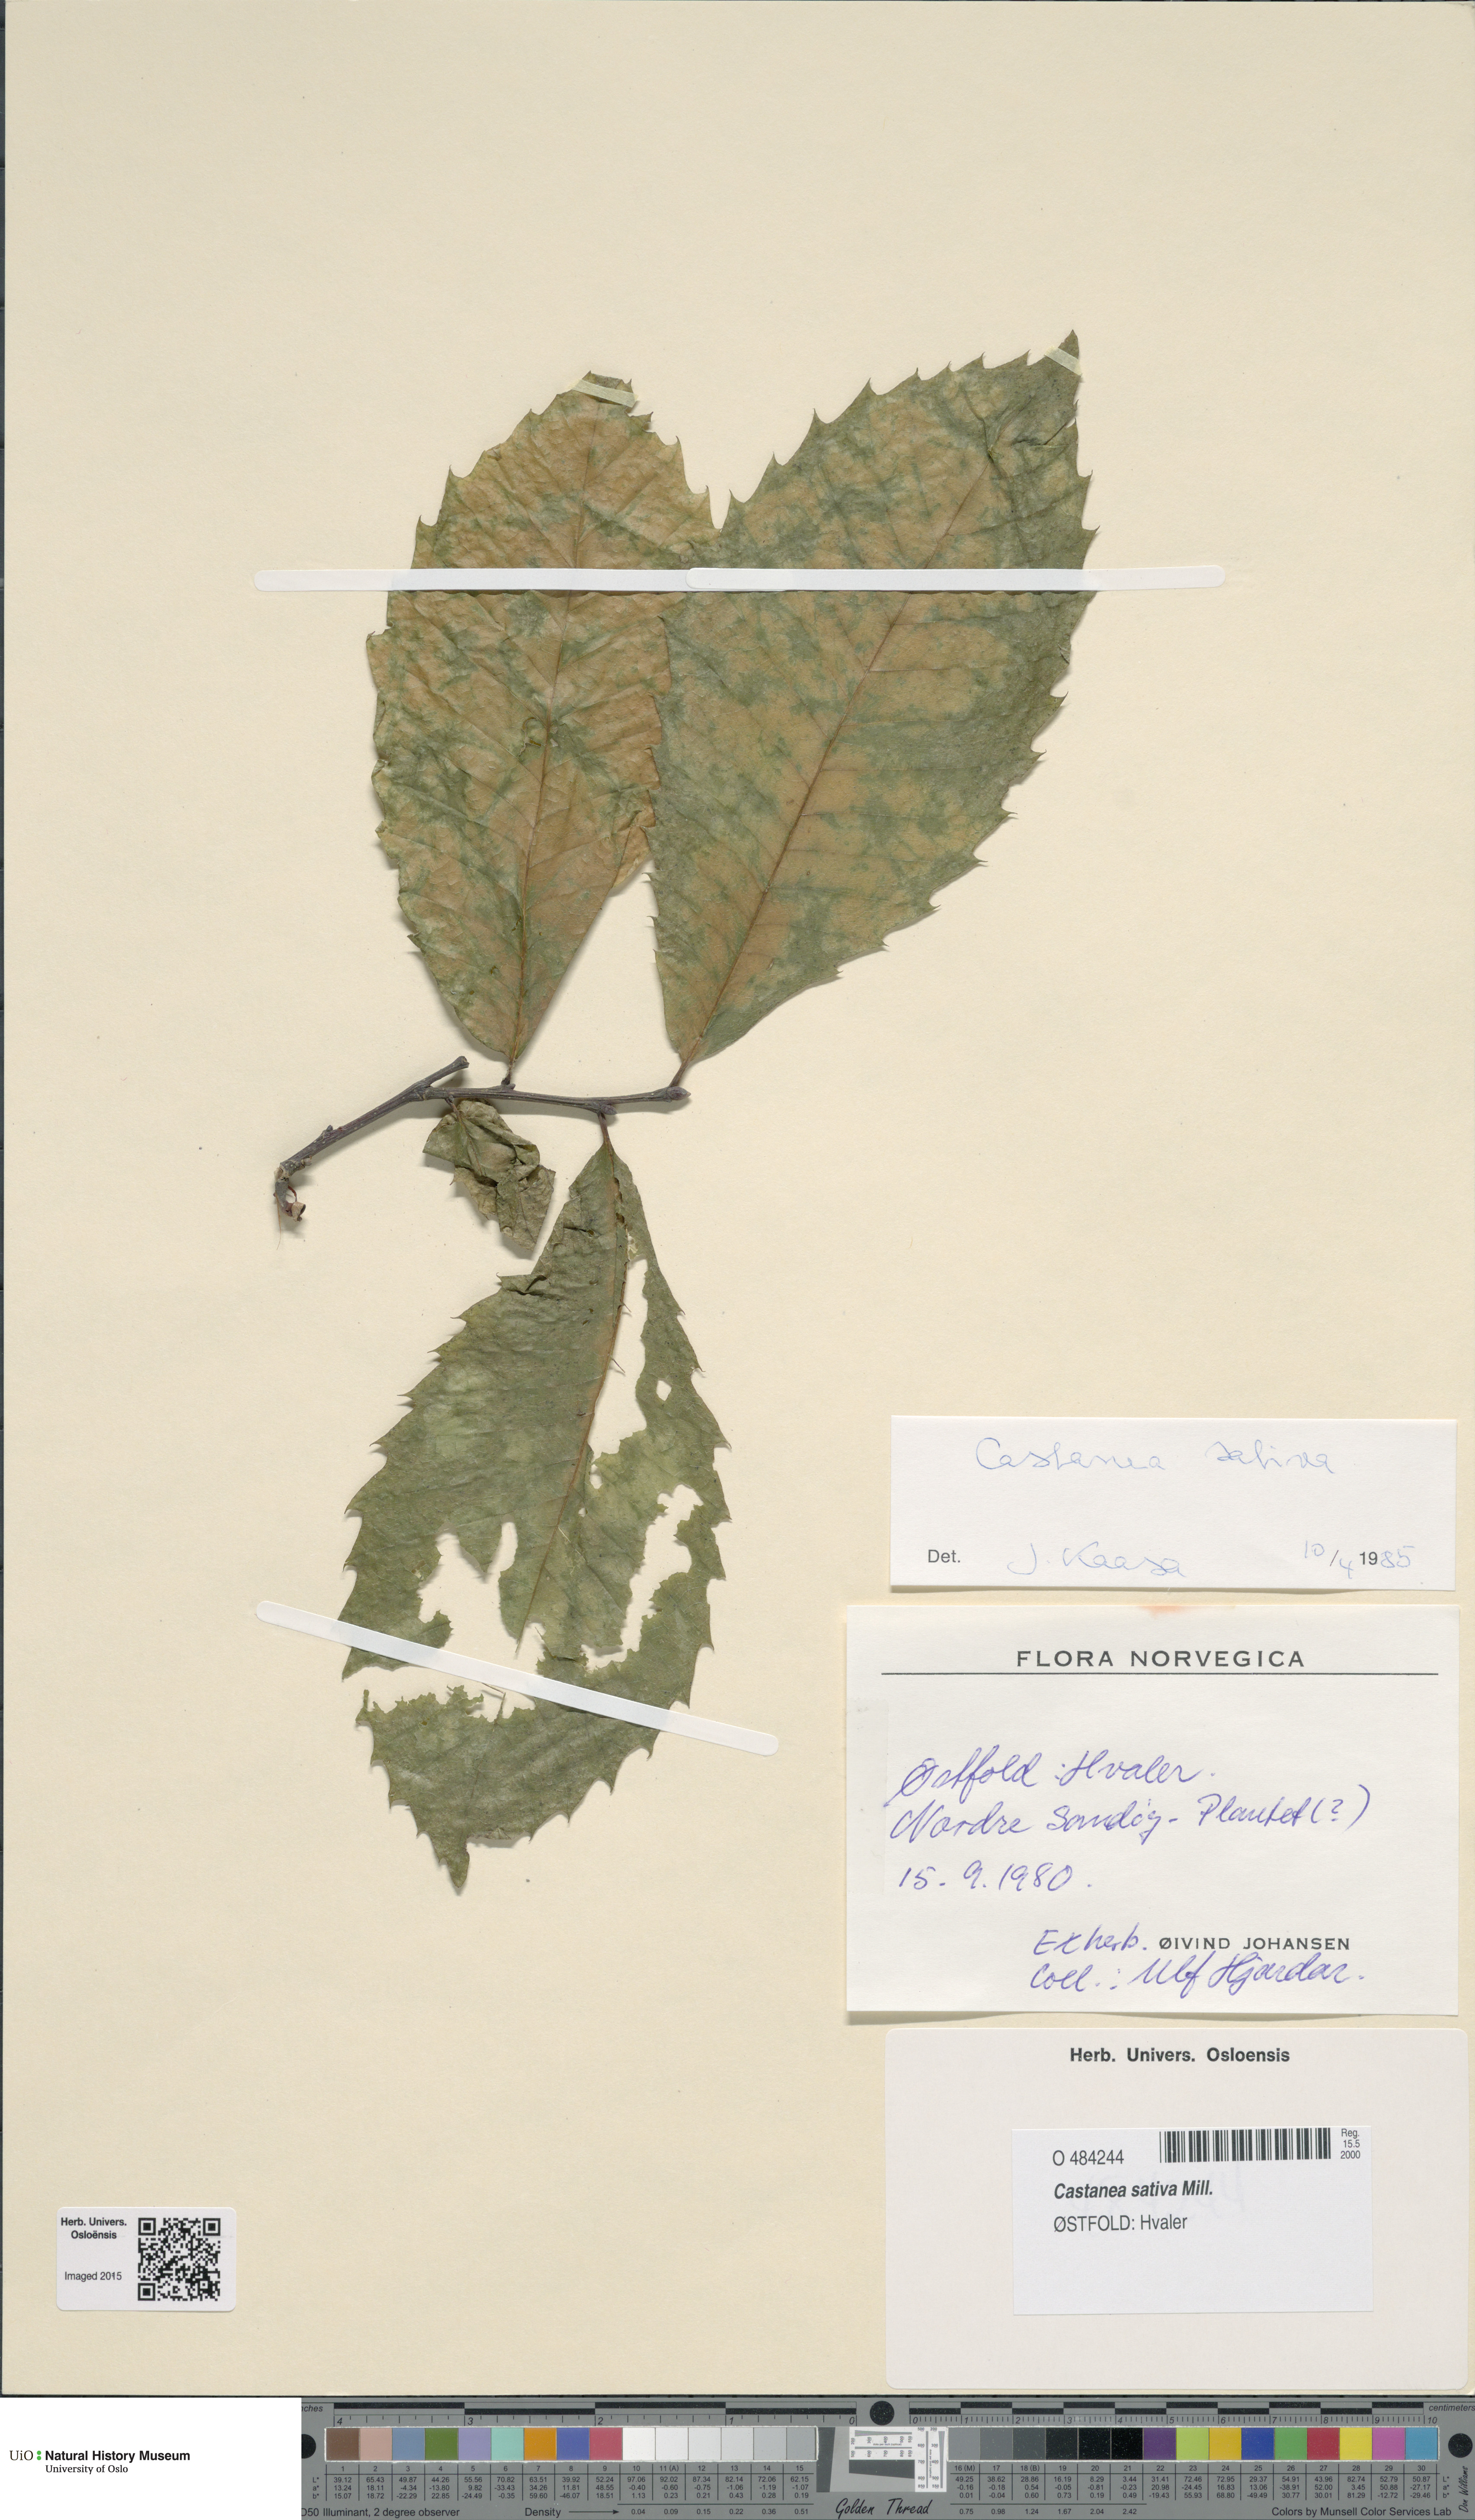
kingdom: Plantae
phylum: Tracheophyta
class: Magnoliopsida
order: Fagales
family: Fagaceae
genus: Castanea
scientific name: Castanea sativa
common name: Sweet chestnut
